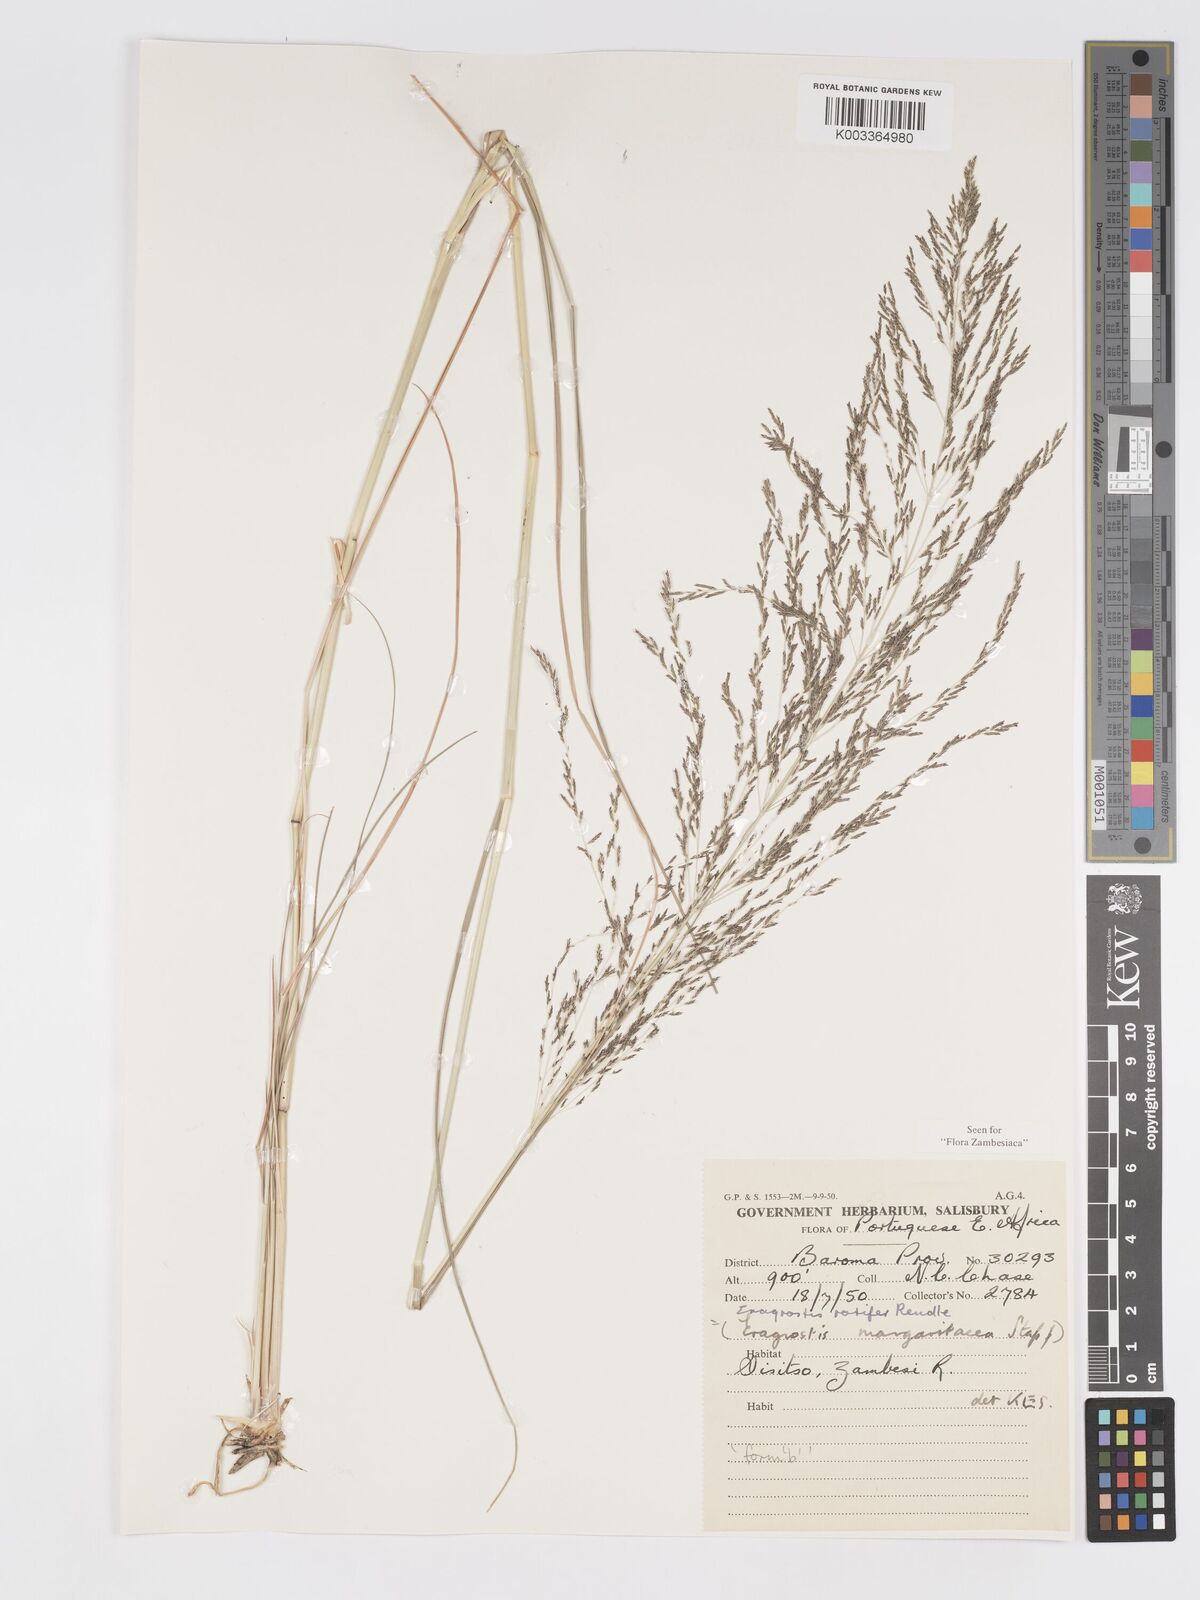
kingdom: Plantae
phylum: Tracheophyta
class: Liliopsida
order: Poales
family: Poaceae
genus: Eragrostis
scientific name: Eragrostis rotifer
